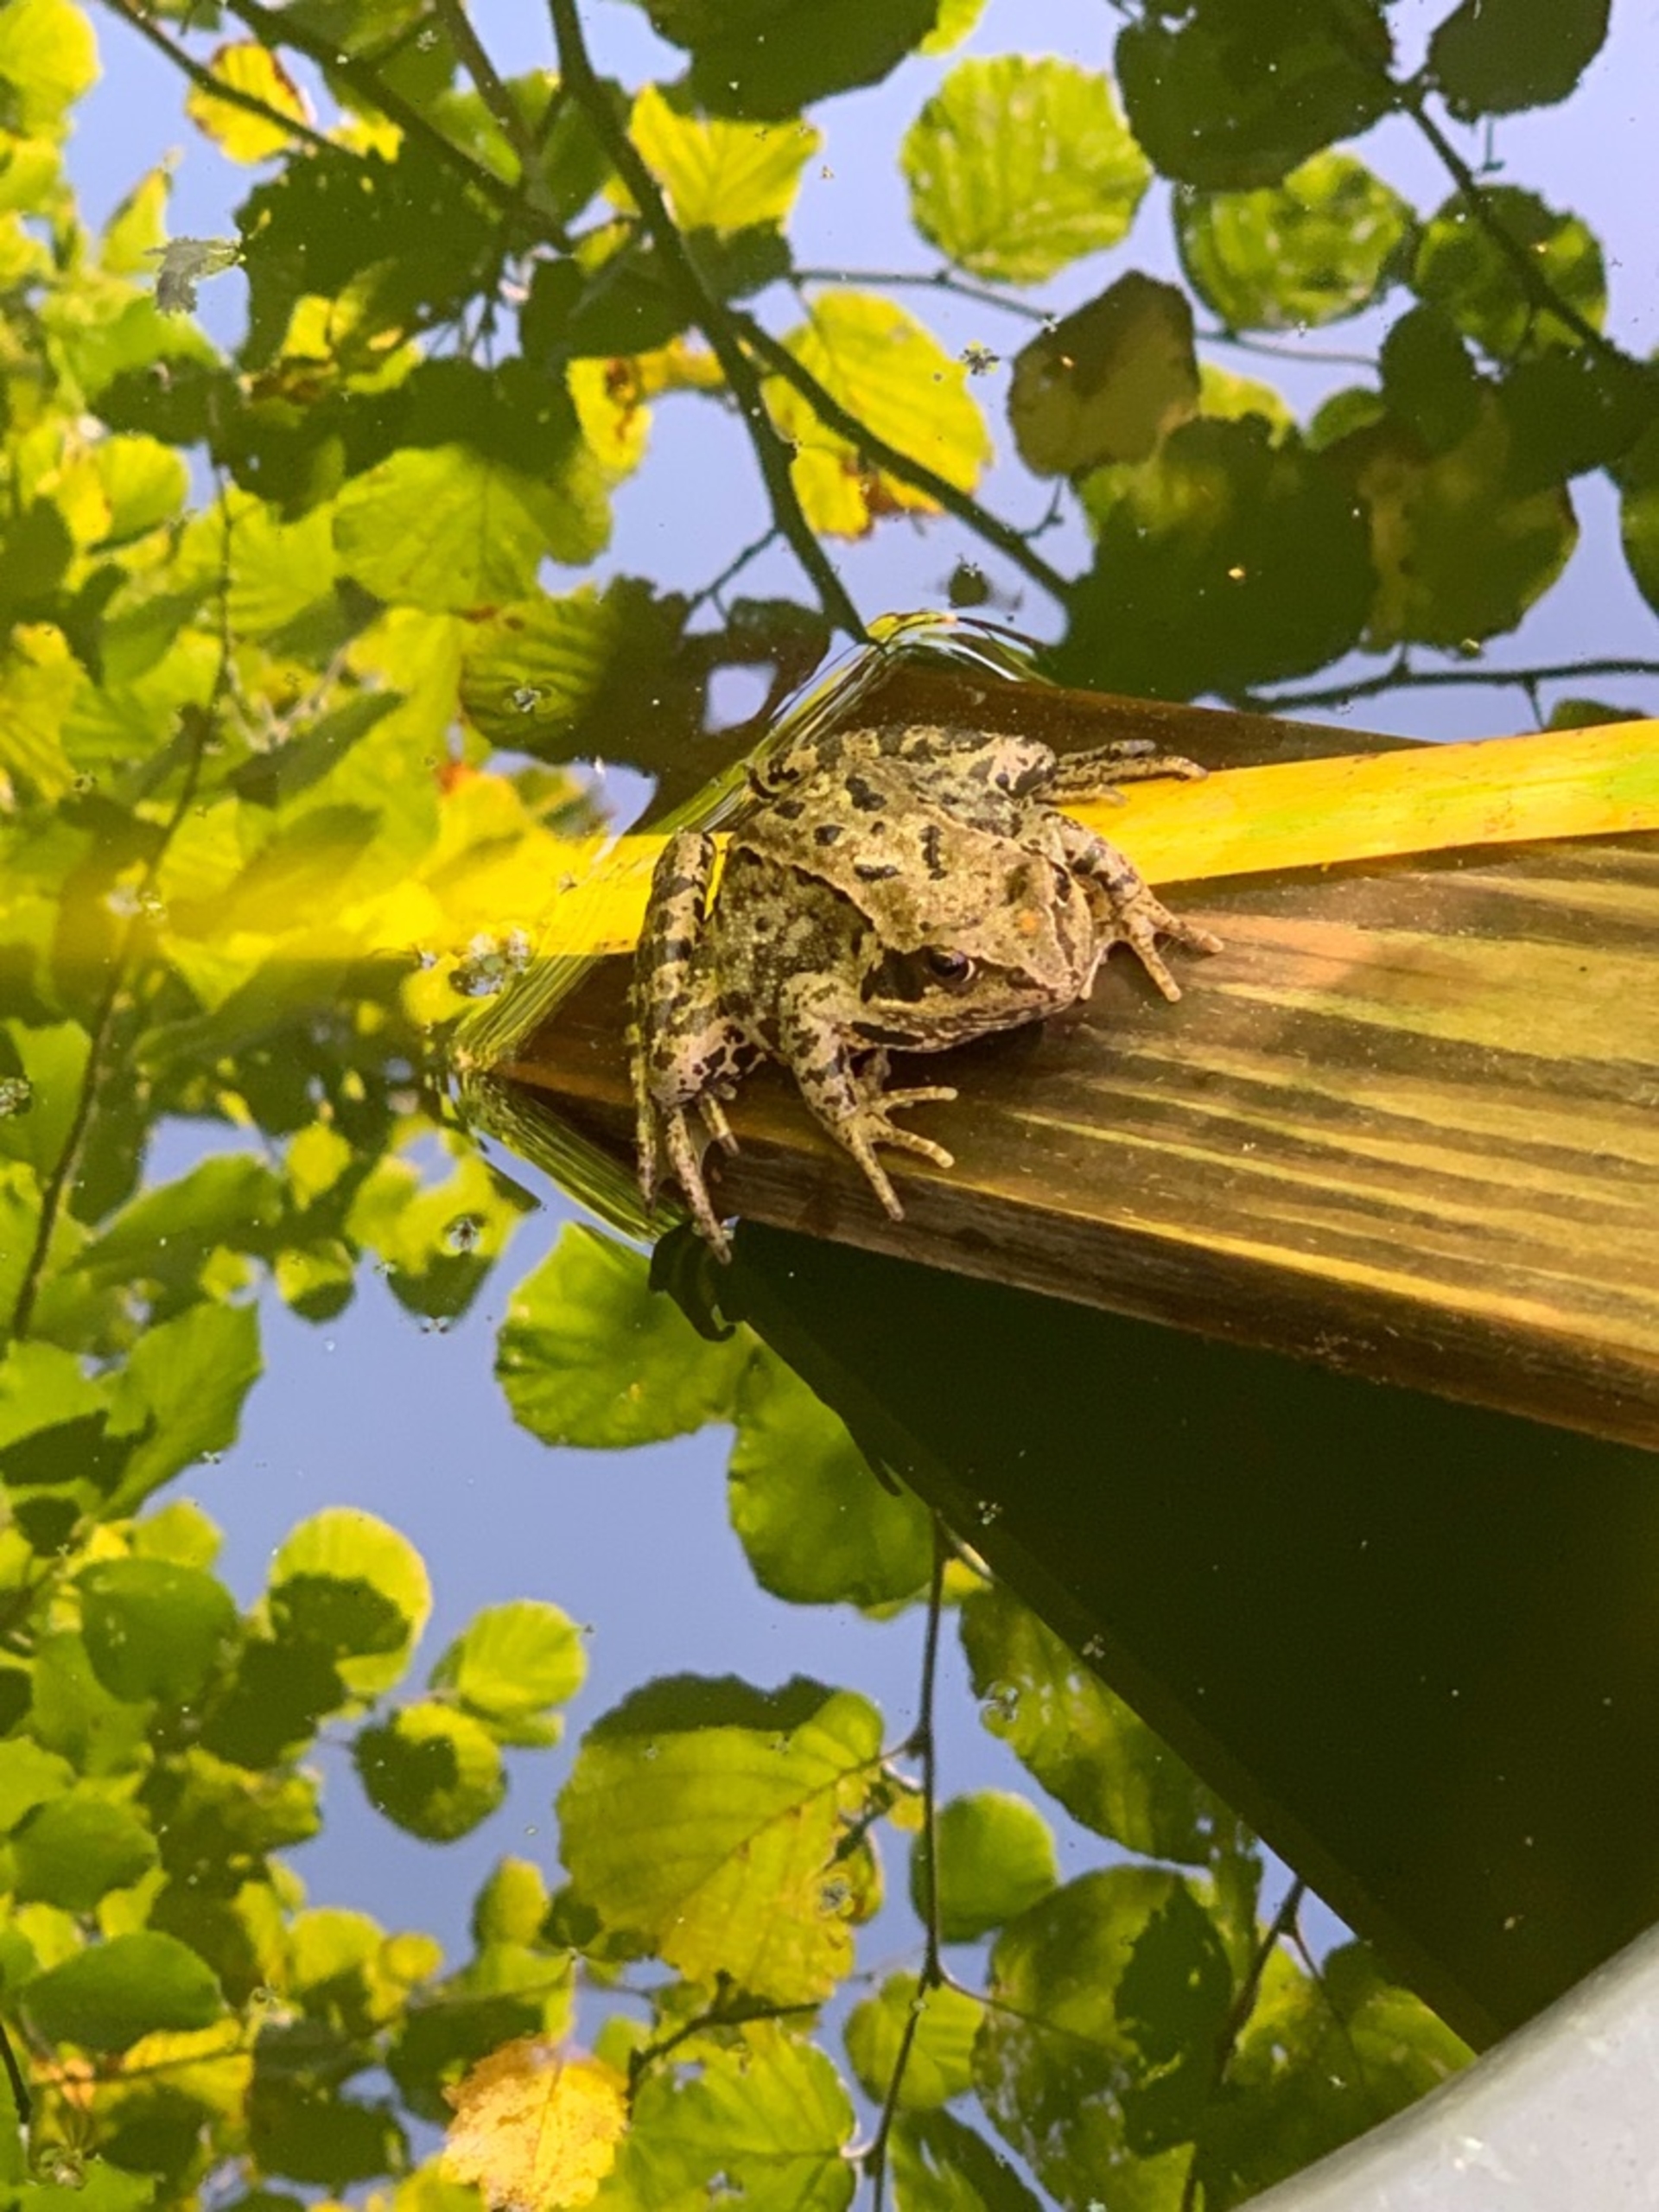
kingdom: Animalia
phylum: Chordata
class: Amphibia
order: Anura
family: Ranidae
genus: Rana
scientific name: Rana temporaria
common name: Butsnudet frø
